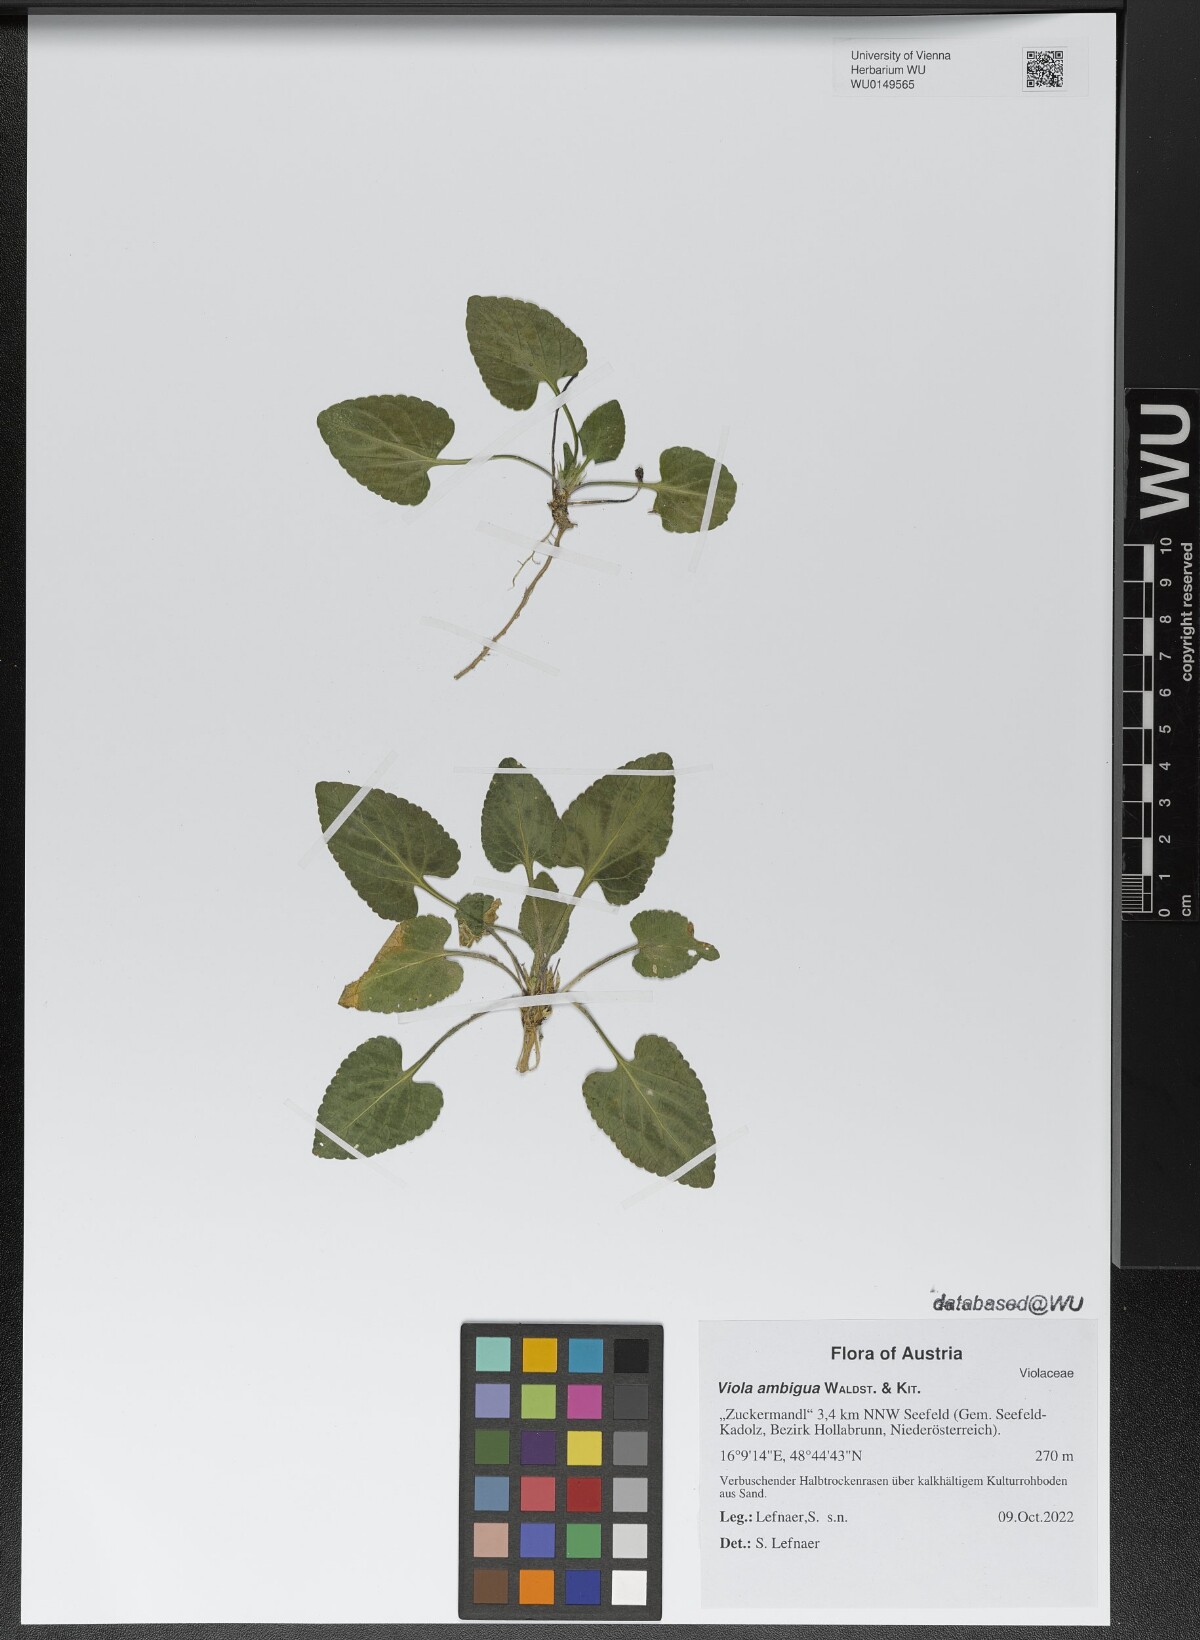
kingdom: Plantae
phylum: Tracheophyta
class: Magnoliopsida
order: Malpighiales
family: Violaceae
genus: Viola
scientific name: Viola ambigua
